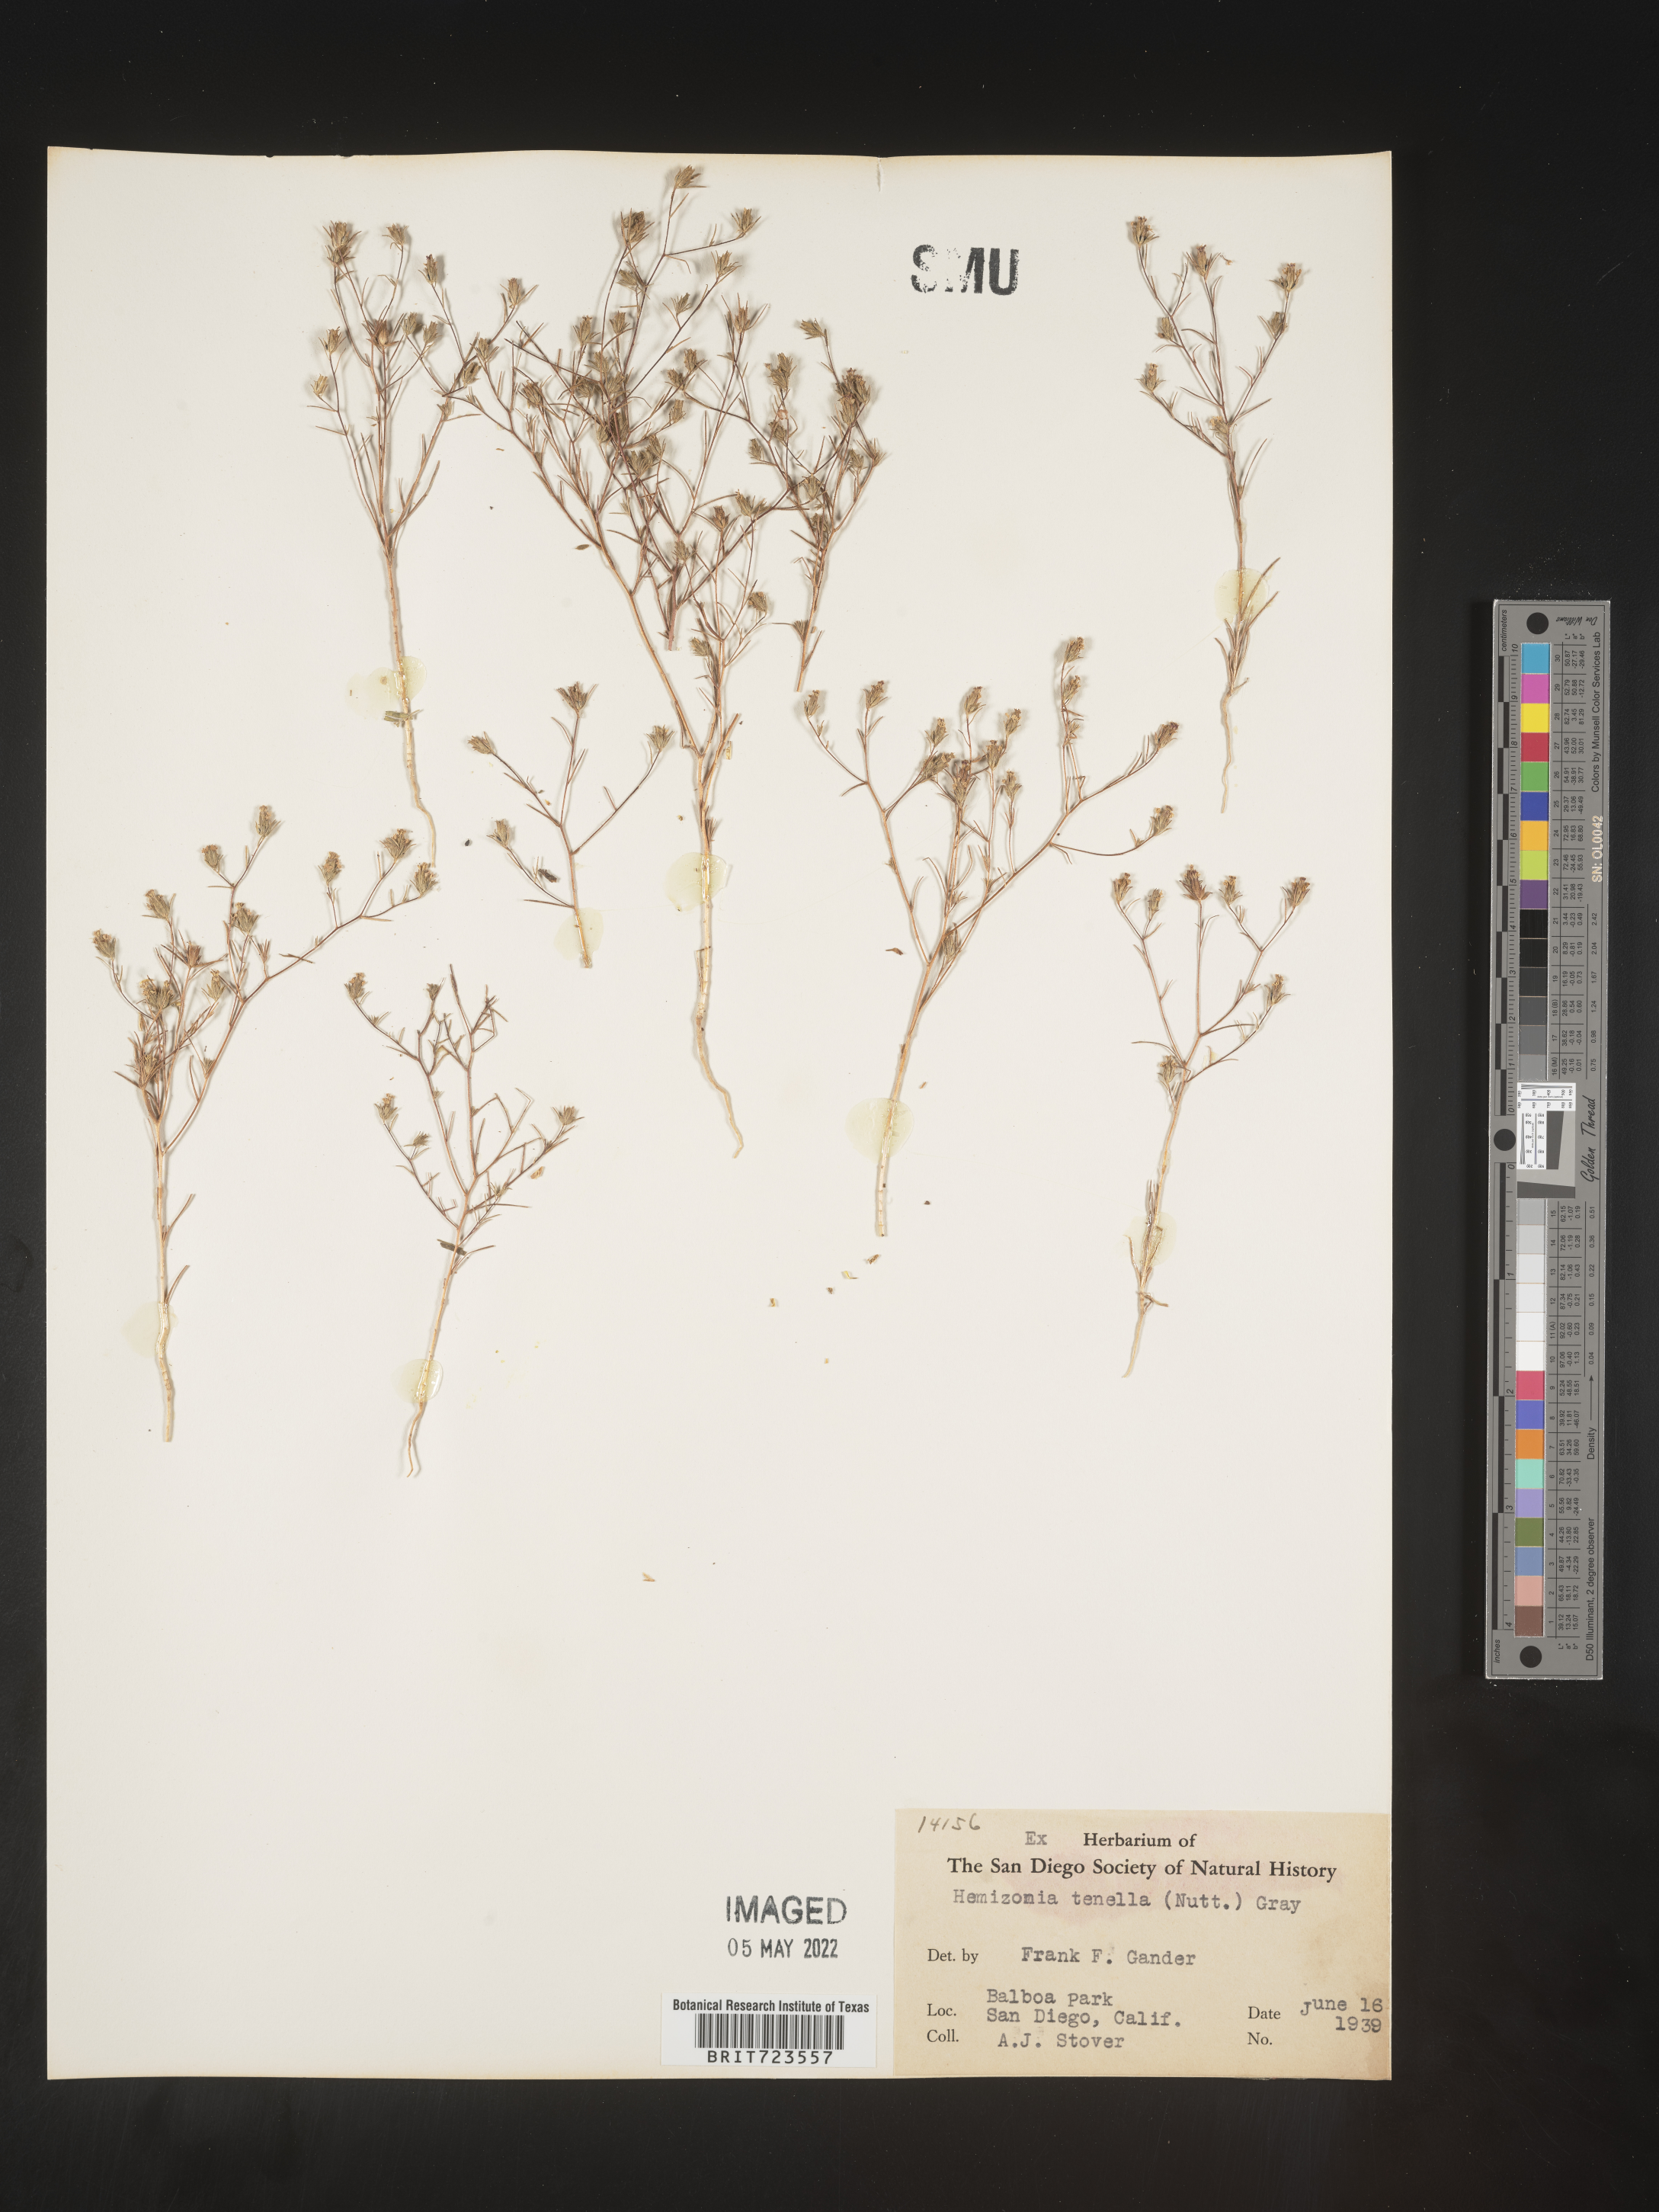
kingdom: Plantae
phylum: Tracheophyta
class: Magnoliopsida
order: Asterales
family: Asteraceae
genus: Hemizonia
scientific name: Hemizonia
